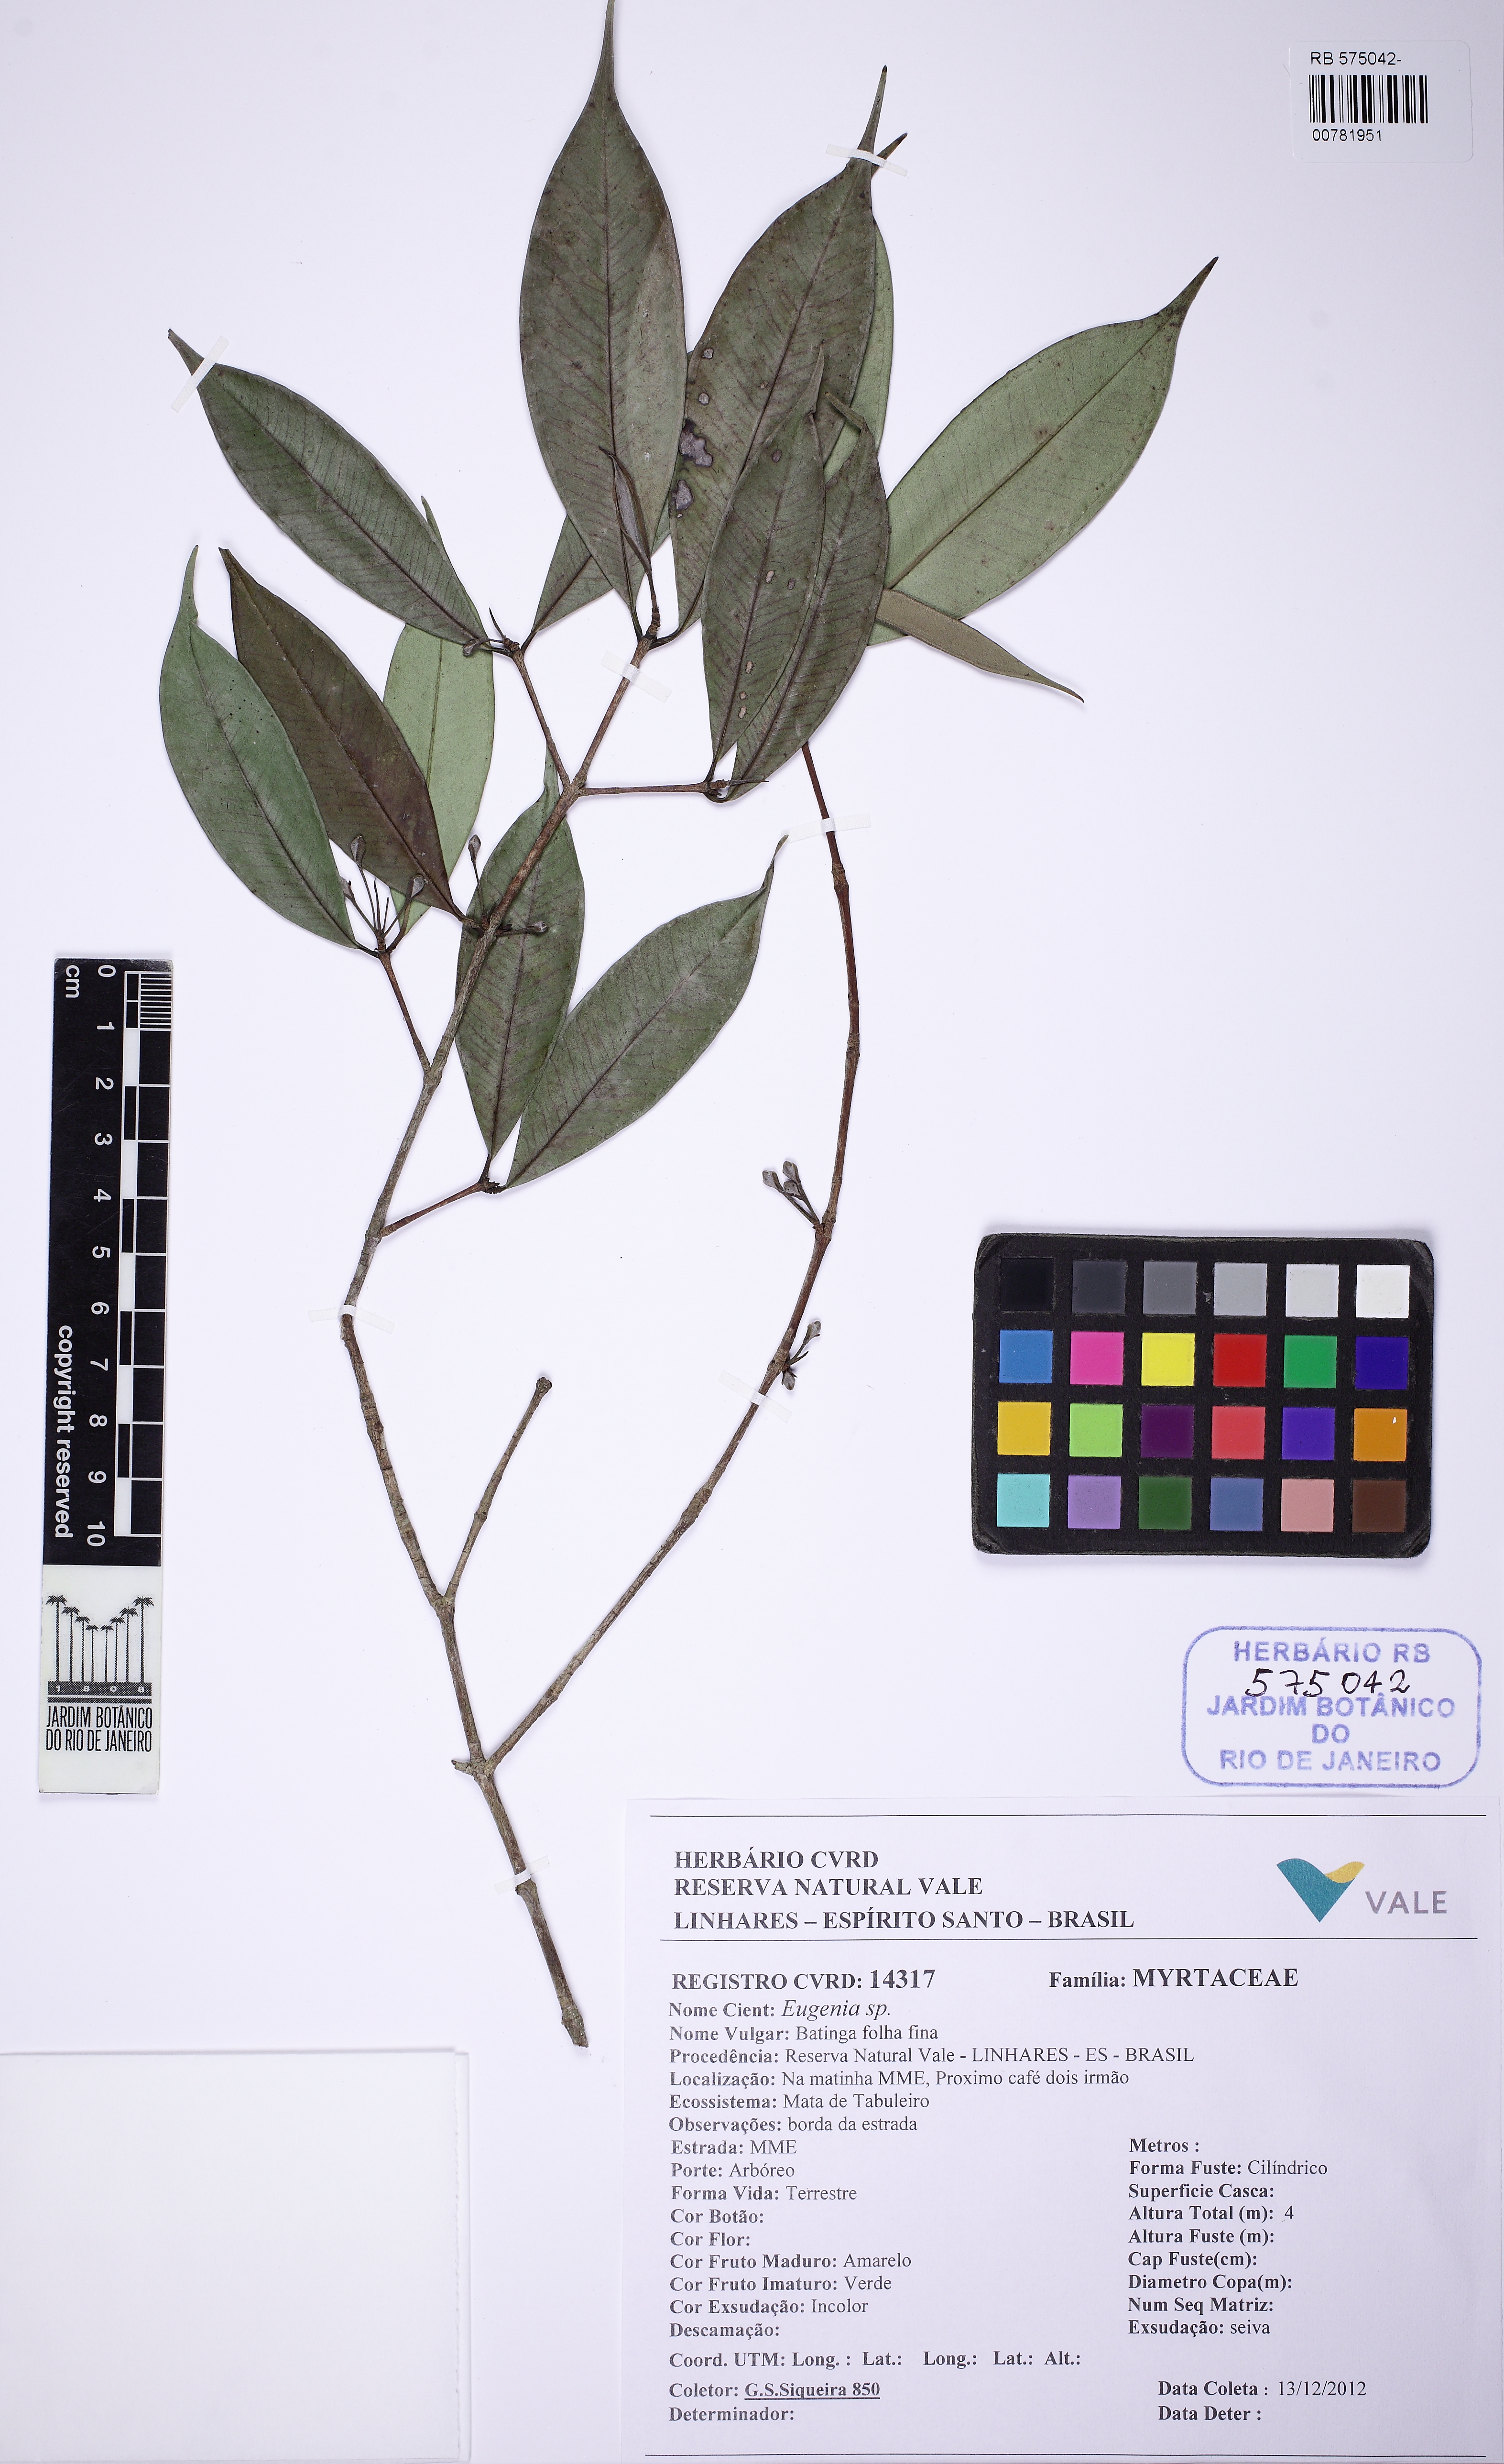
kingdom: Plantae
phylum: Tracheophyta
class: Magnoliopsida
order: Myrtales
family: Myrtaceae
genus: Eugenia
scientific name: Eugenia soteriana
